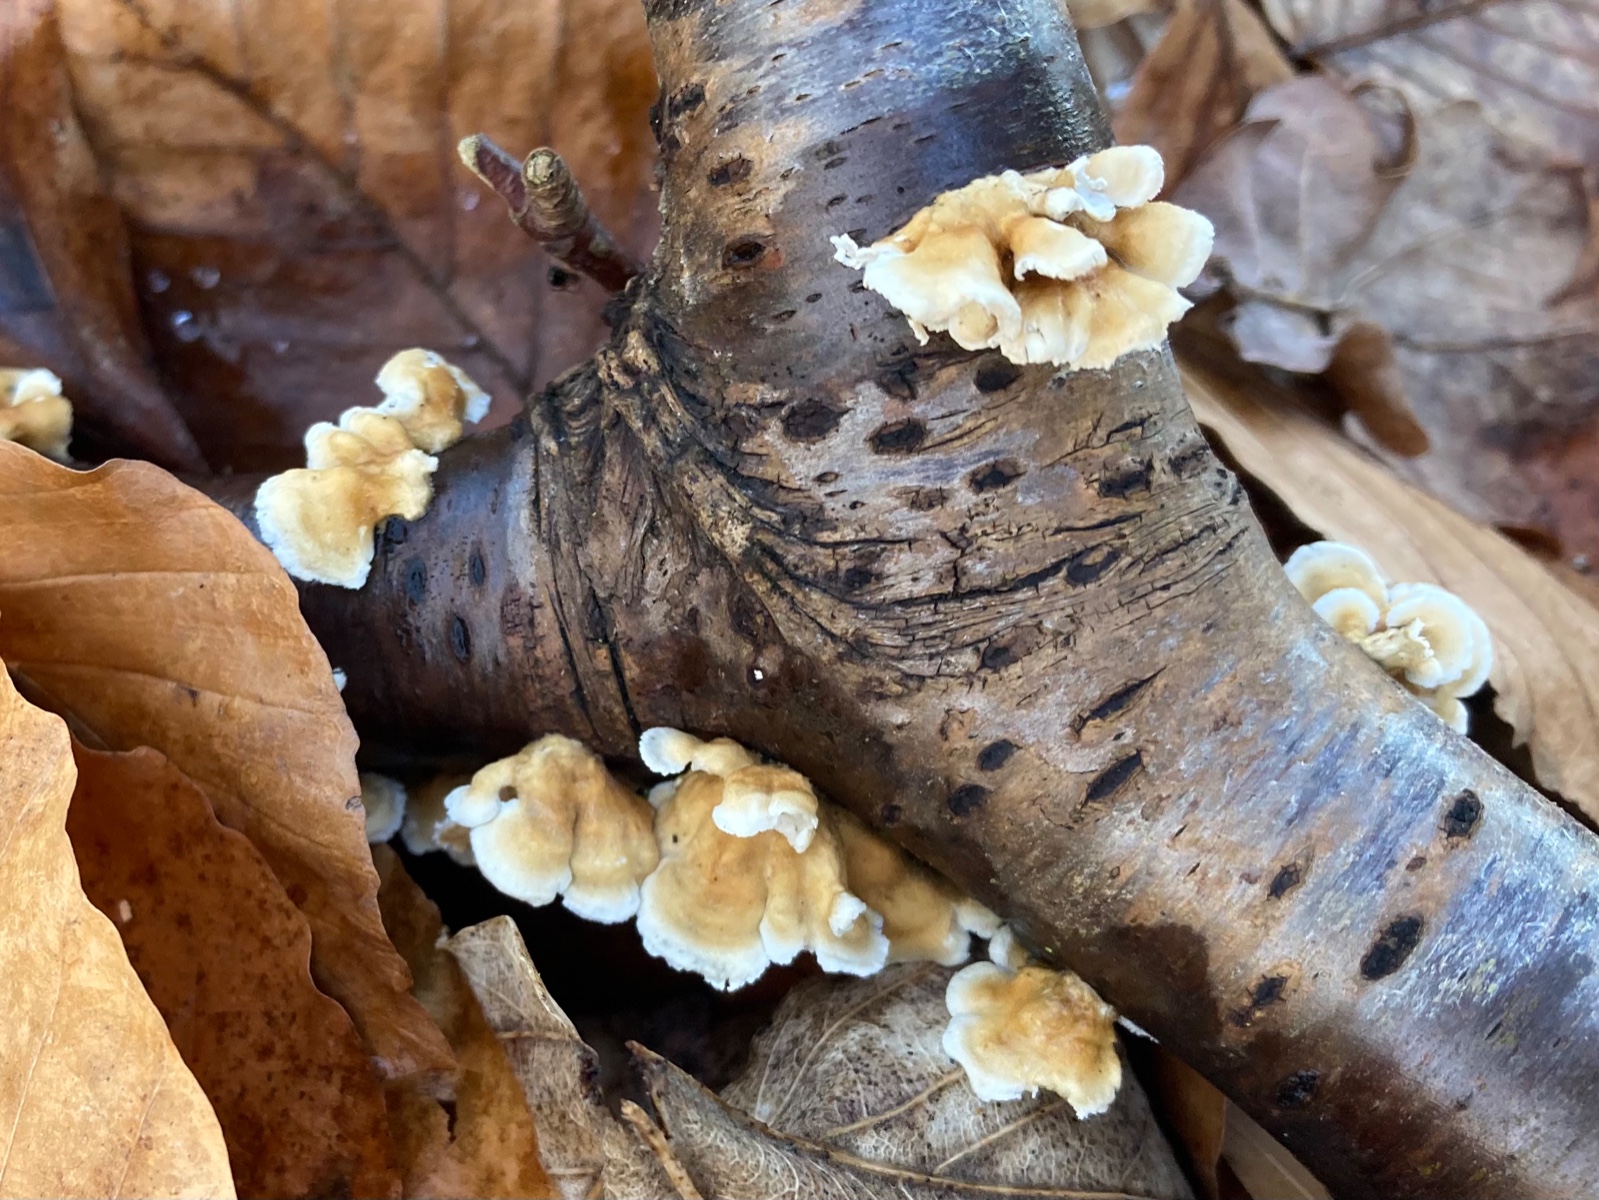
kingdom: Fungi
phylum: Basidiomycota
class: Agaricomycetes
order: Amylocorticiales
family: Amylocorticiaceae
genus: Plicaturopsis
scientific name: Plicaturopsis crispa
